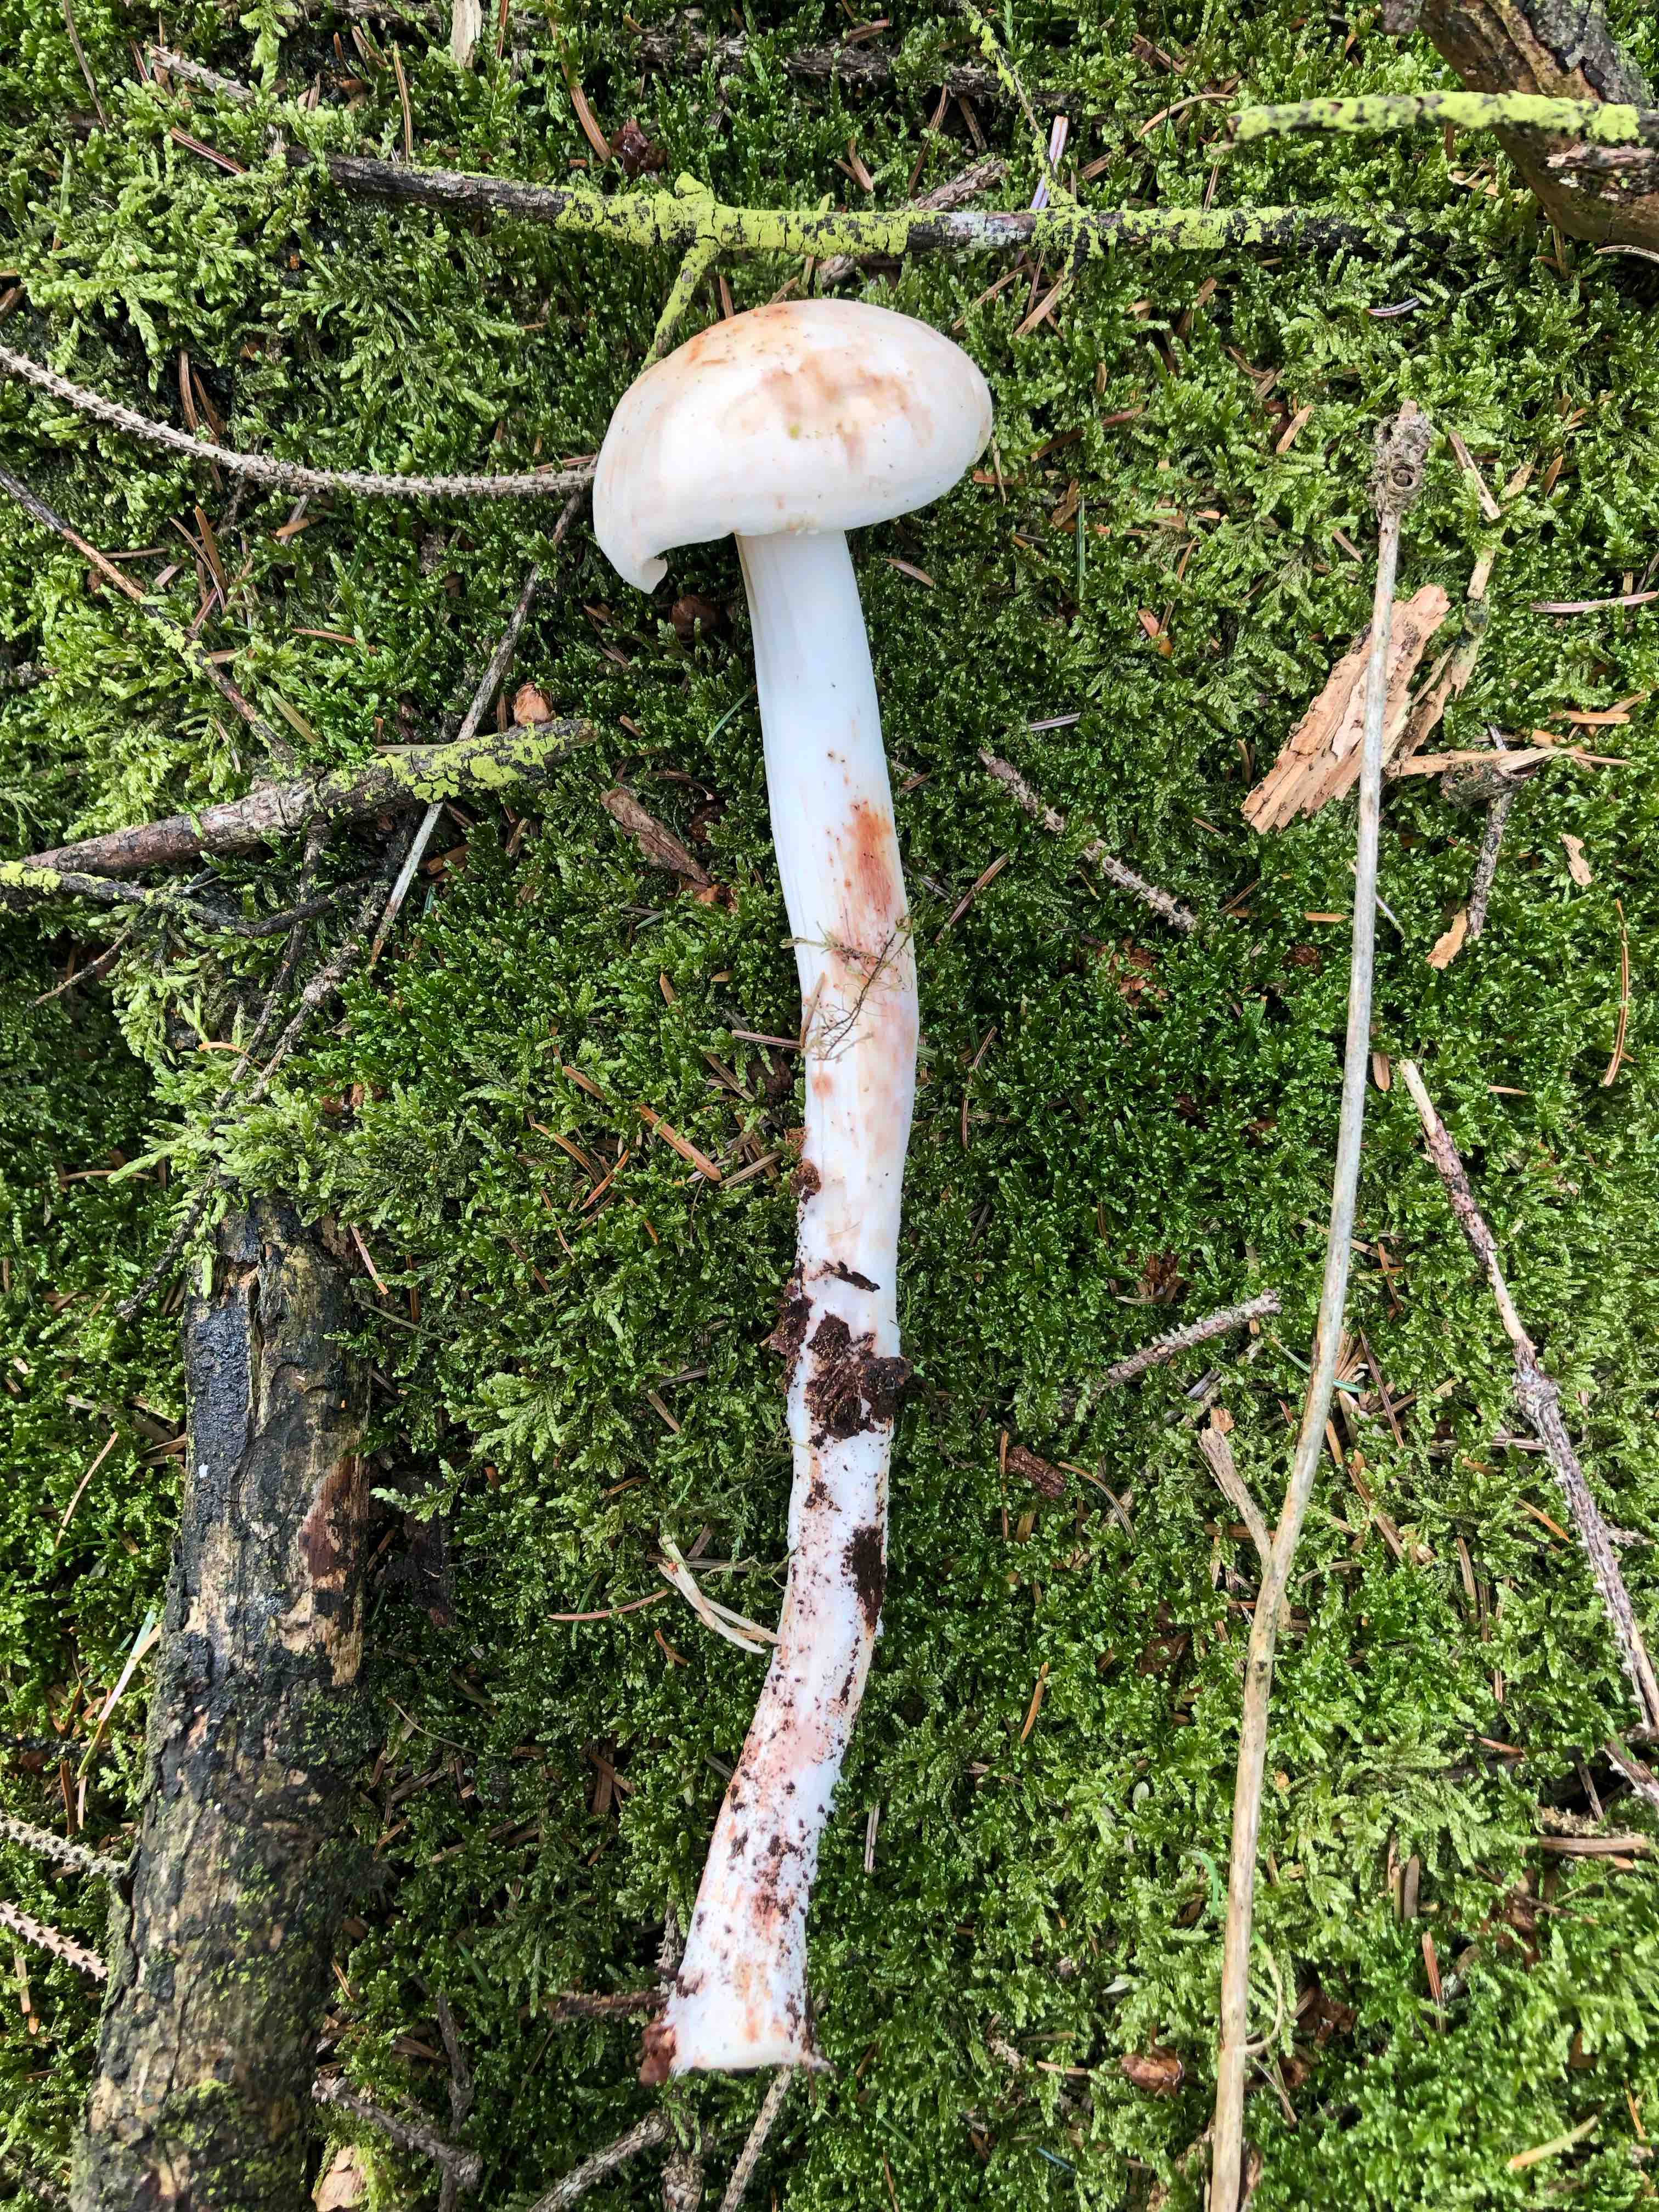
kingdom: Fungi
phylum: Basidiomycota
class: Agaricomycetes
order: Agaricales
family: Omphalotaceae
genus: Rhodocollybia
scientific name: Rhodocollybia maculata
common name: plettet fladhat
